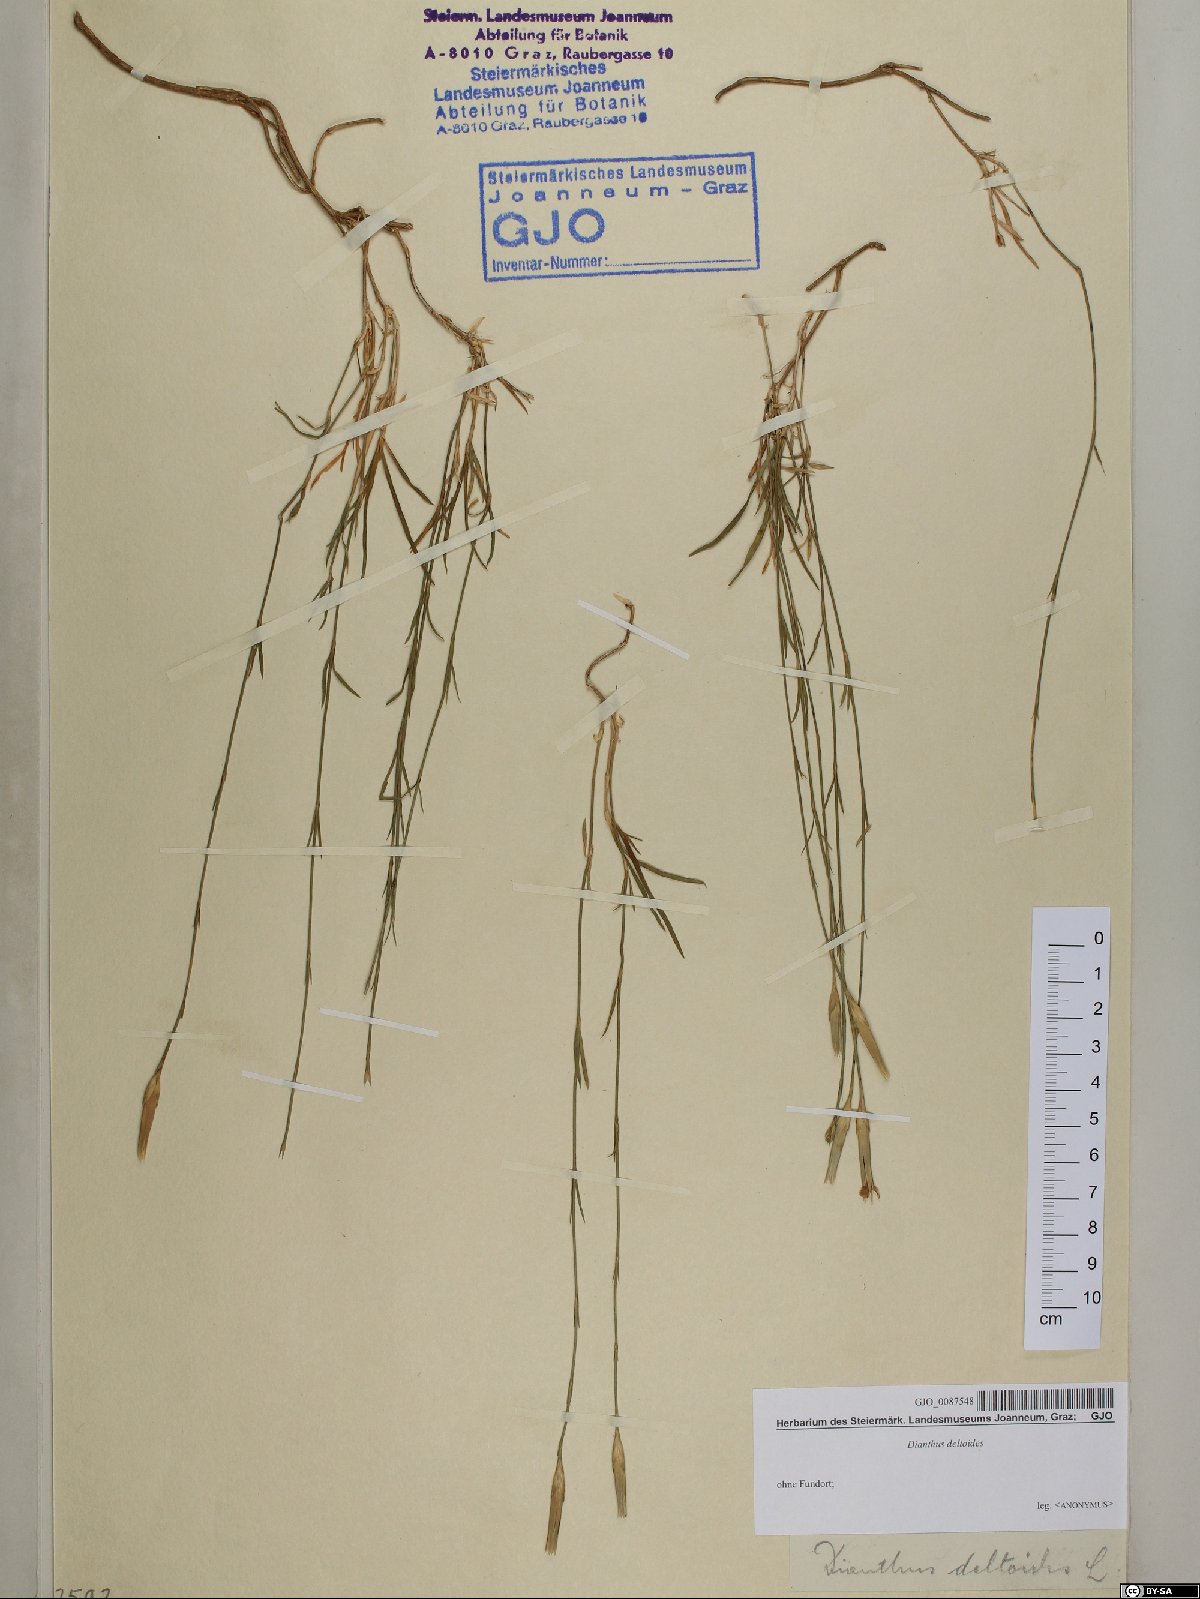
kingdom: Plantae
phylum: Tracheophyta
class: Magnoliopsida
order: Caryophyllales
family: Caryophyllaceae
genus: Dianthus
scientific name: Dianthus deltoides
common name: Maiden pink
